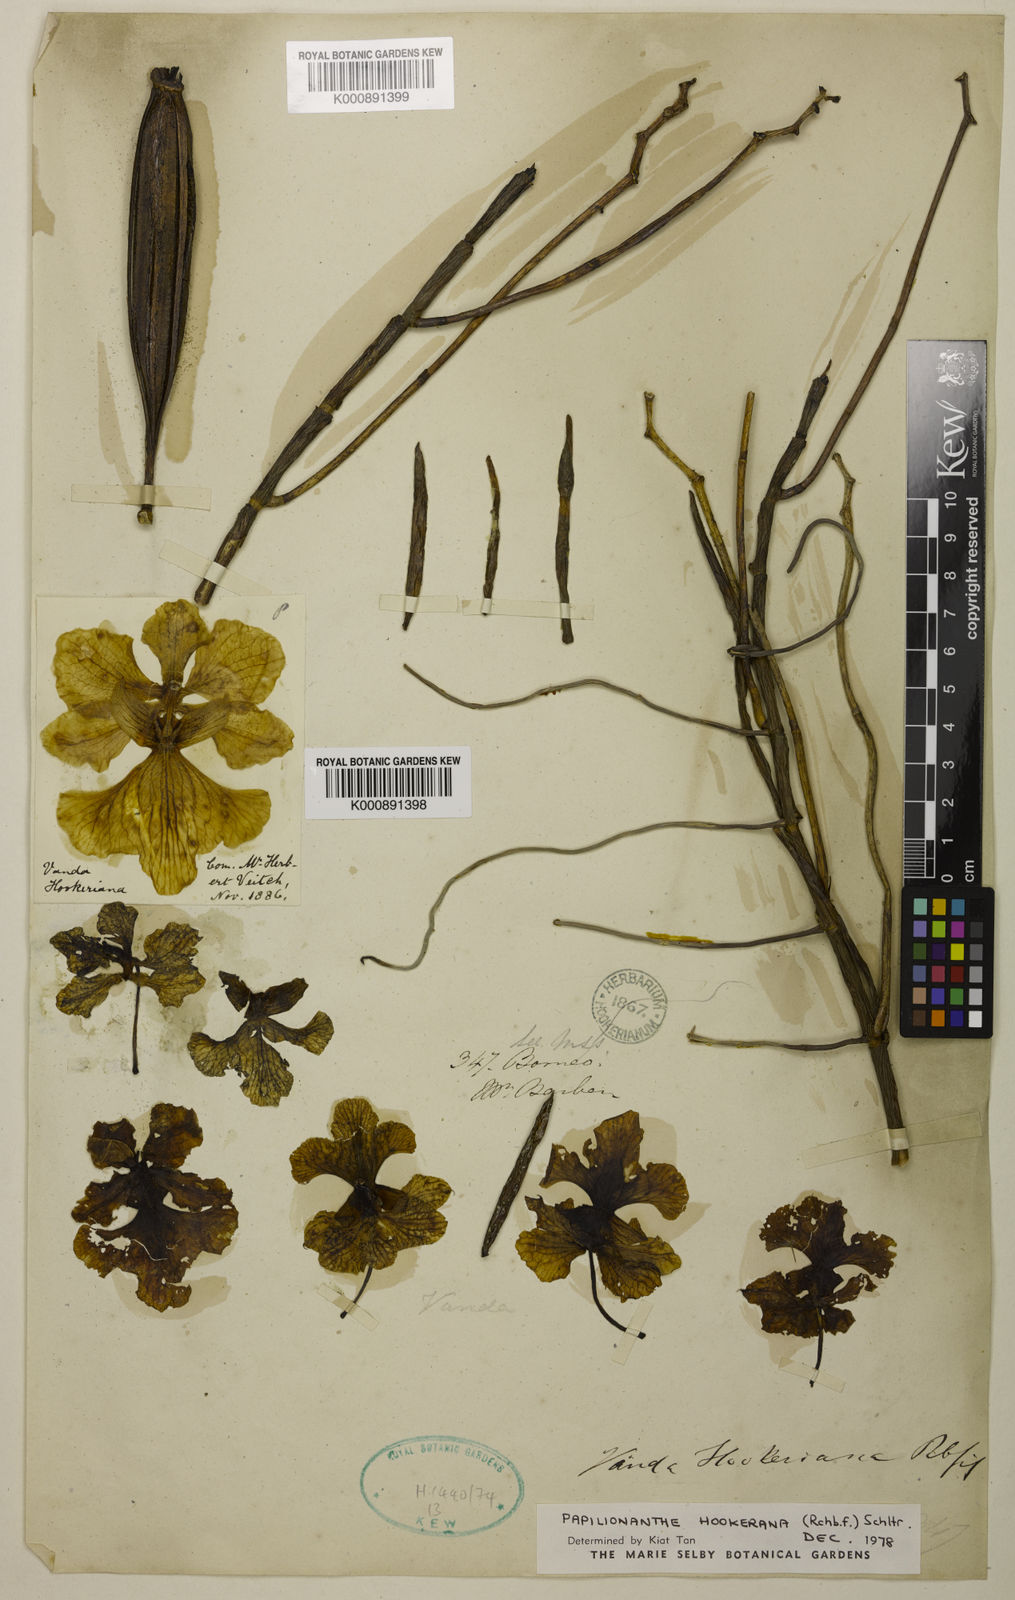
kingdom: Plantae
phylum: Tracheophyta
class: Liliopsida
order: Asparagales
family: Orchidaceae
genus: Papilionanthe
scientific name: Papilionanthe hookeriana
